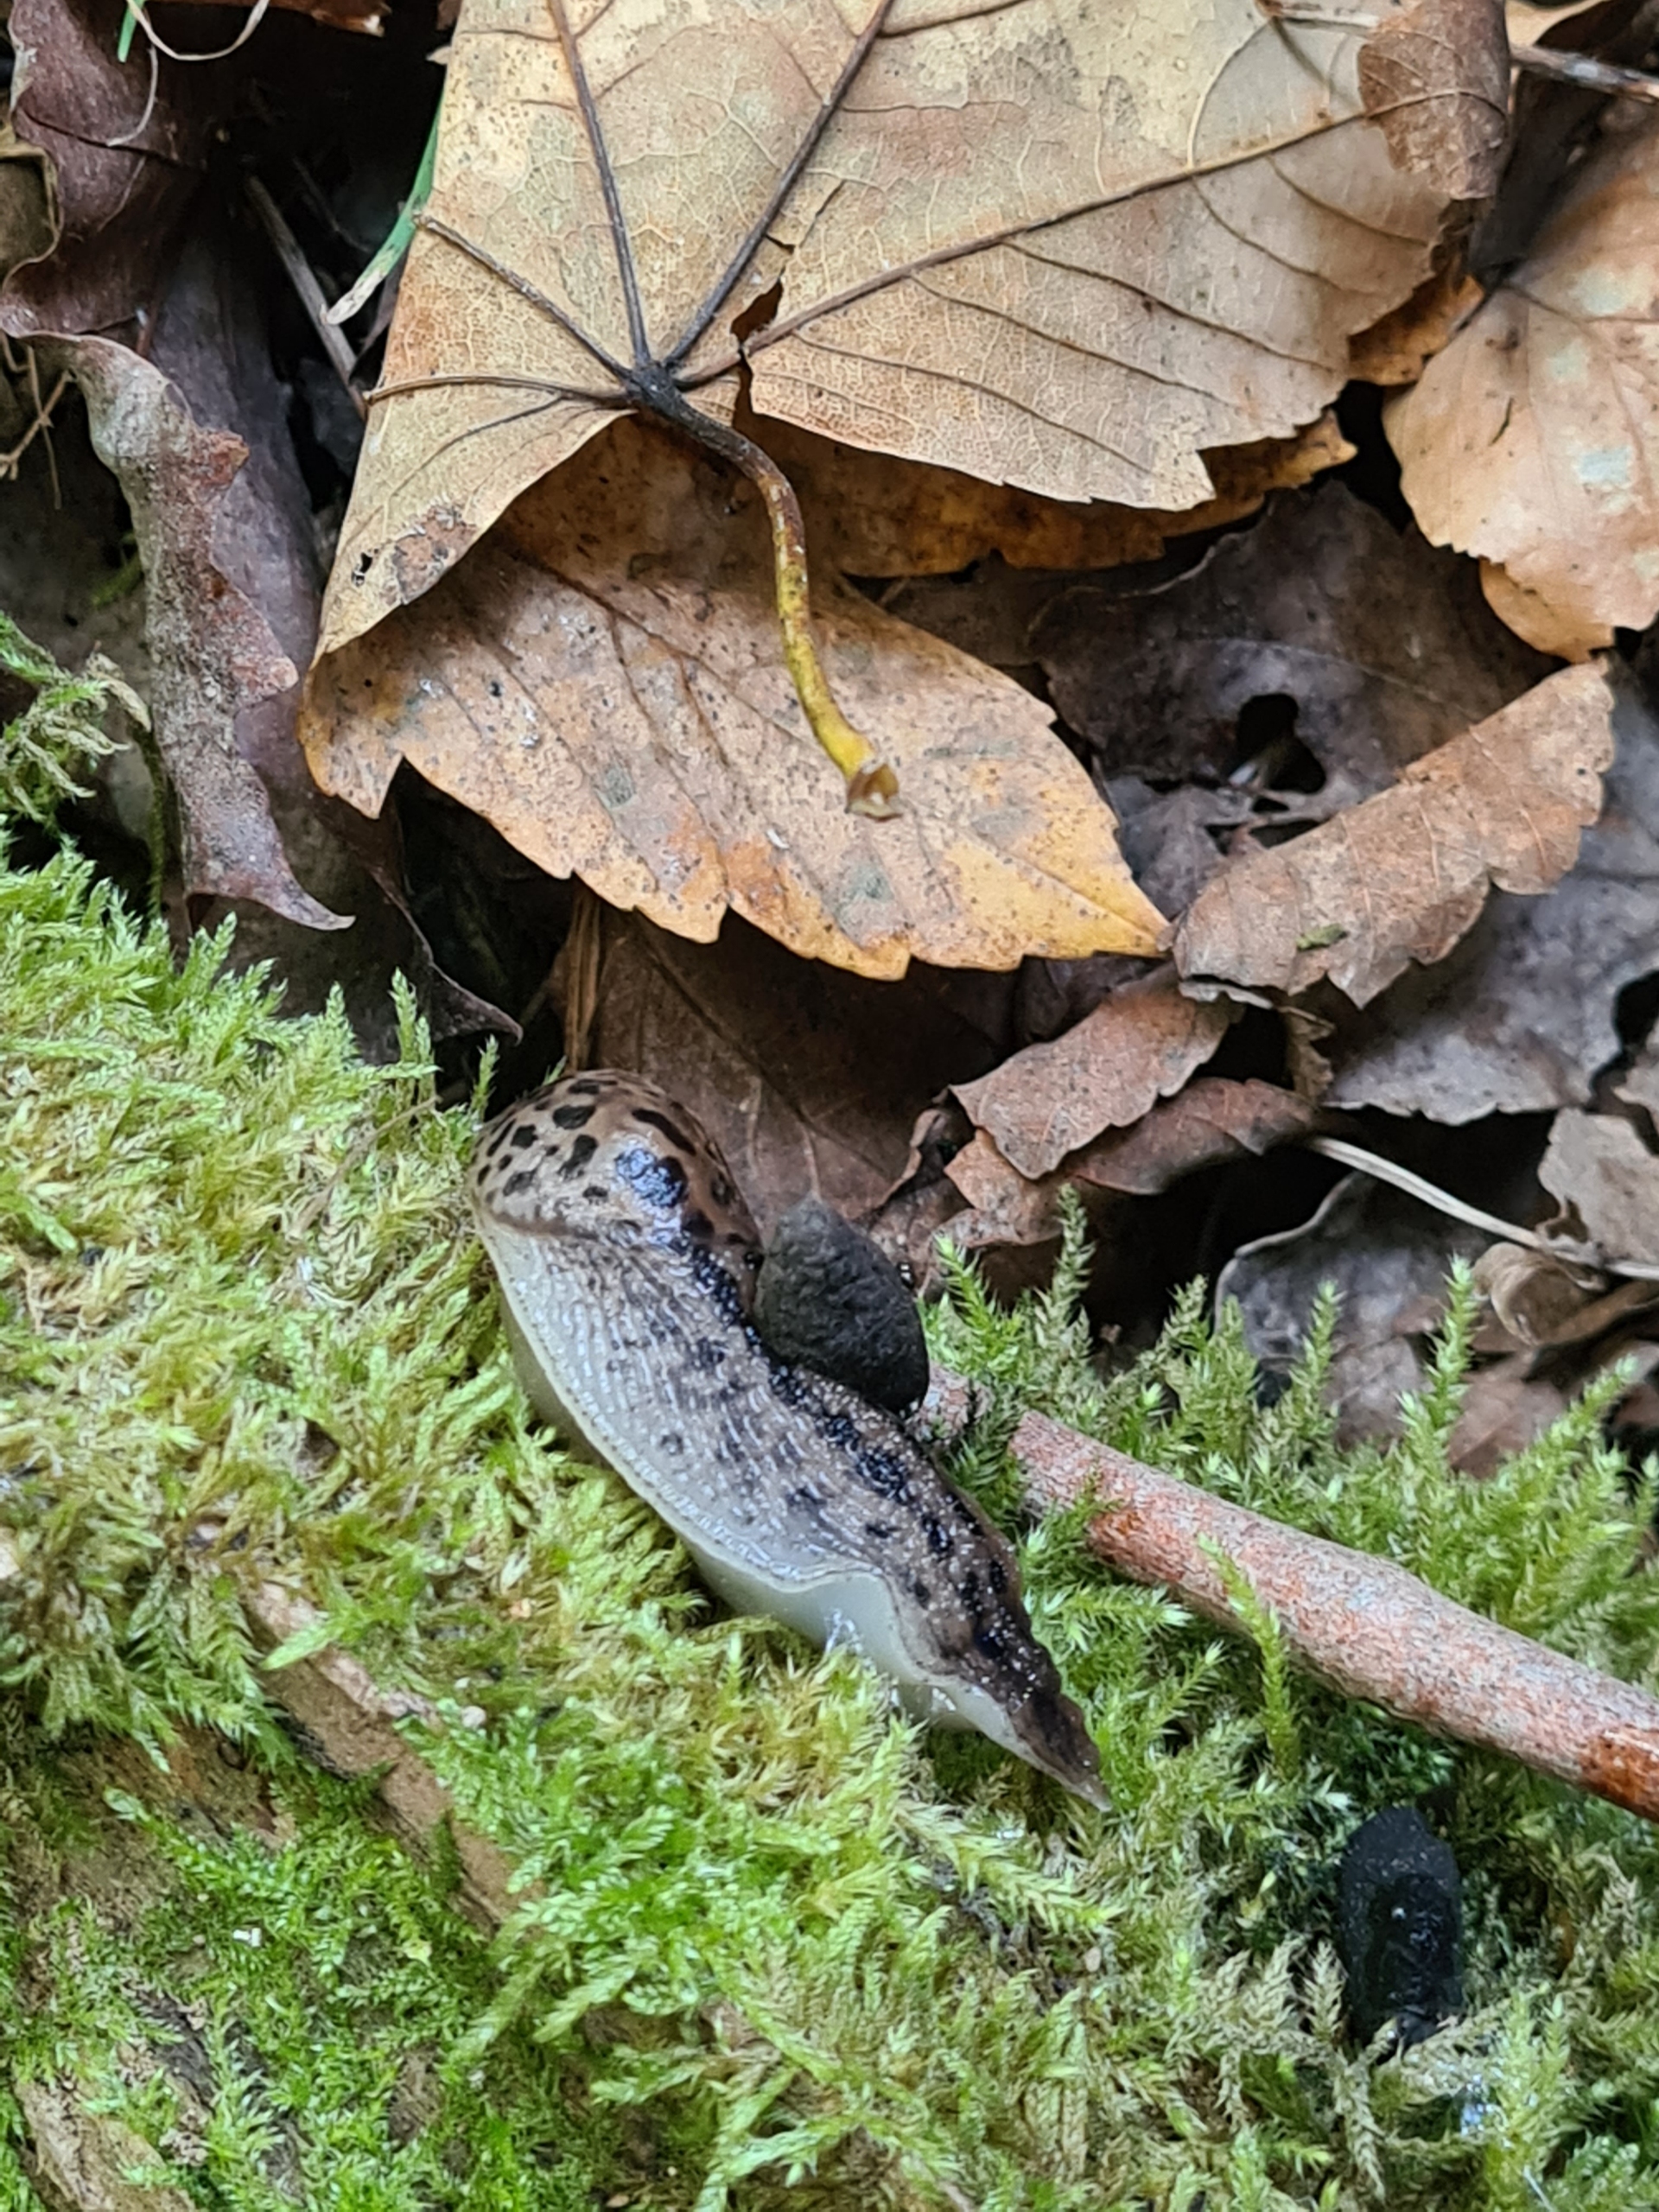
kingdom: Animalia
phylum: Mollusca
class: Gastropoda
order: Stylommatophora
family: Limacidae
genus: Limax
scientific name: Limax maximus
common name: Pantersnegl
